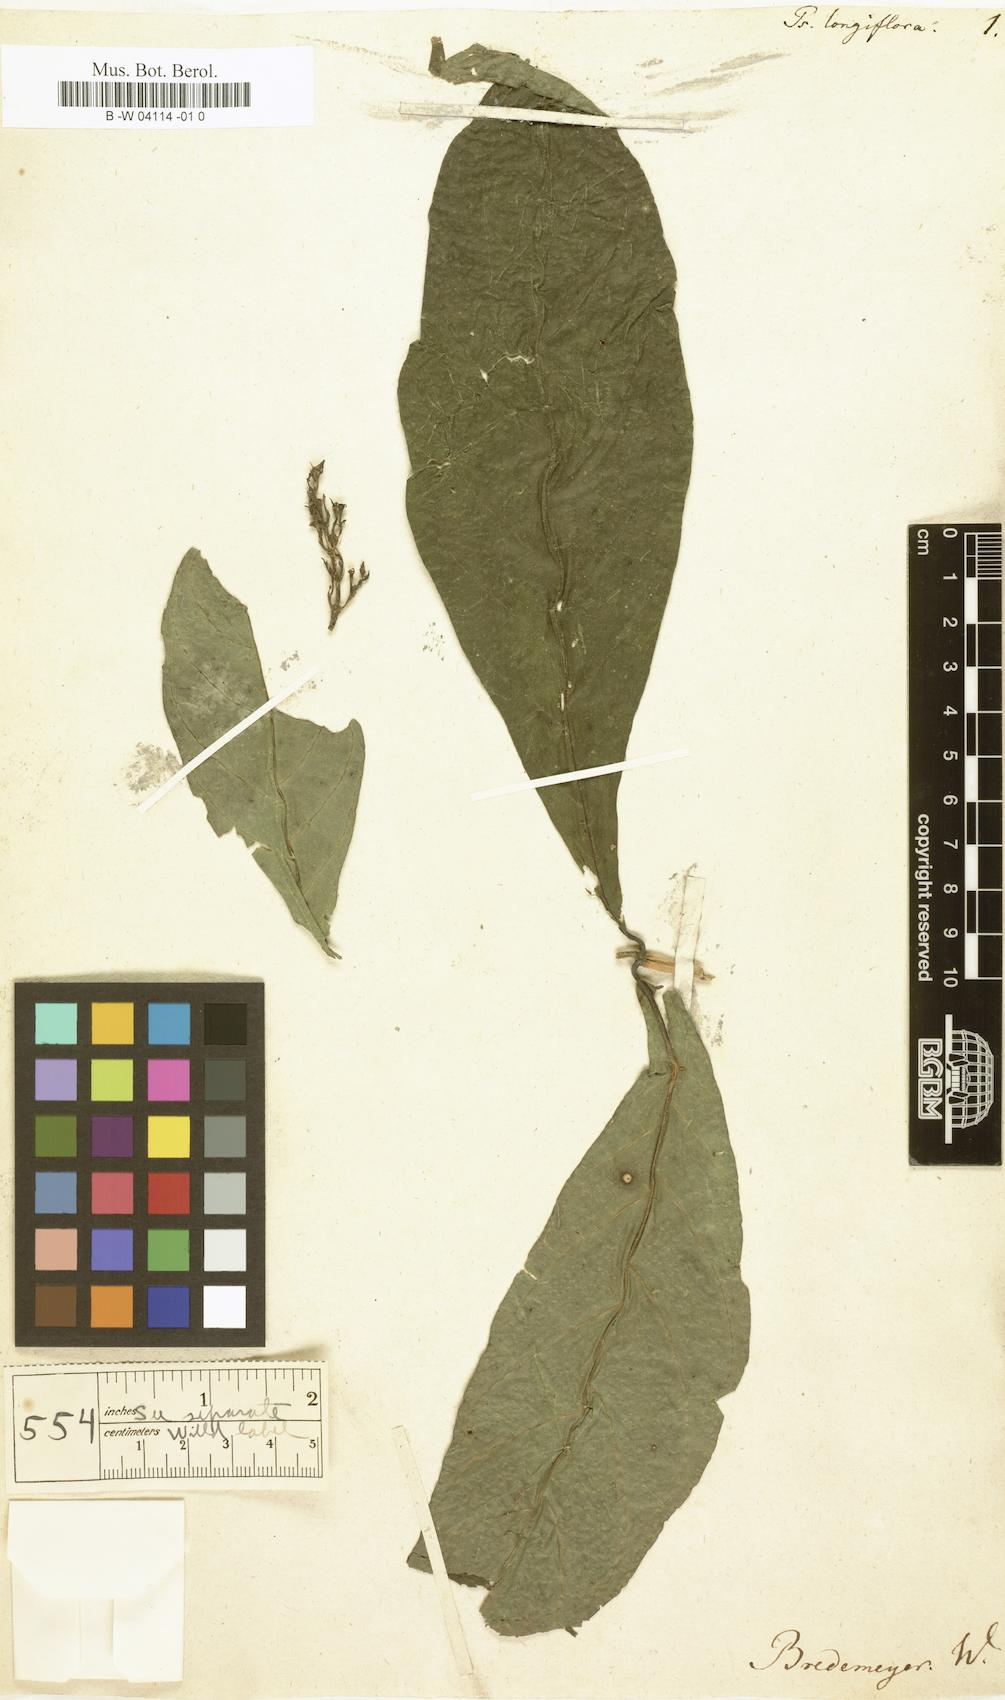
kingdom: Plantae
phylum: Tracheophyta
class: Magnoliopsida
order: Gentianales
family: Rubiaceae
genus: Palicourea
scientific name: Palicourea longiflora
